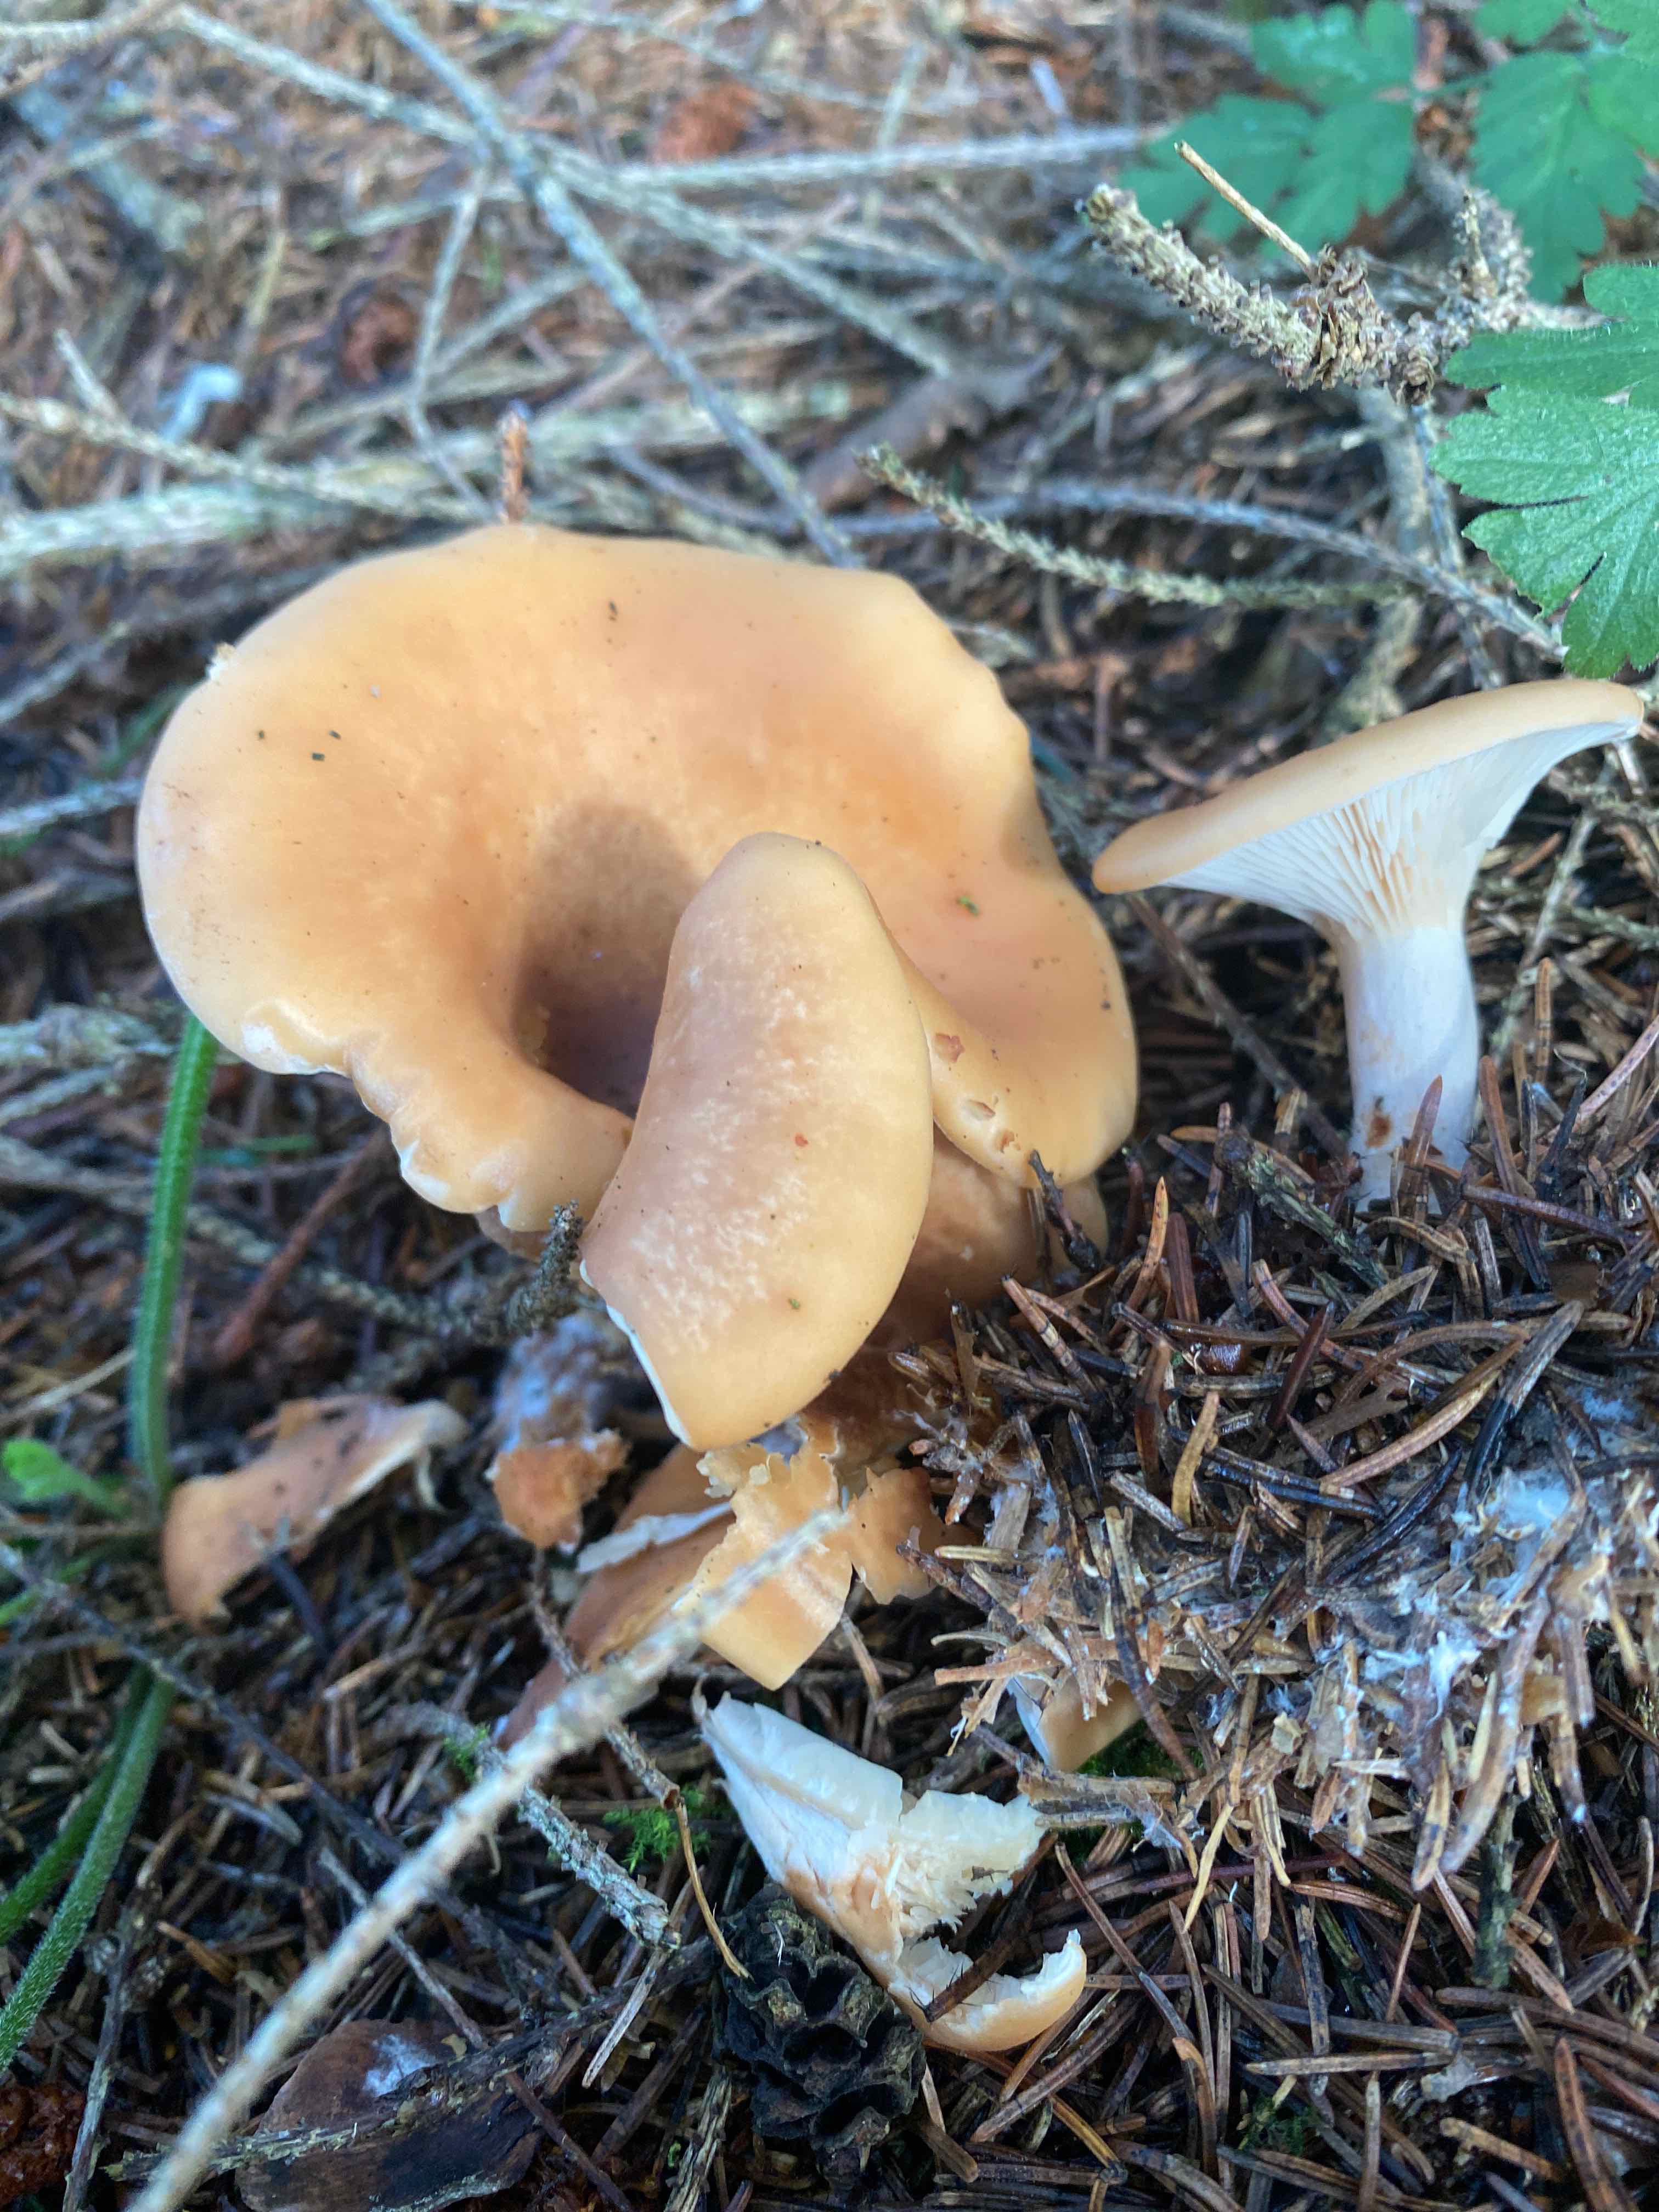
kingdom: Fungi
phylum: Basidiomycota
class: Agaricomycetes
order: Agaricales
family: Tricholomataceae
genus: Paralepista
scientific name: Paralepista flaccida
